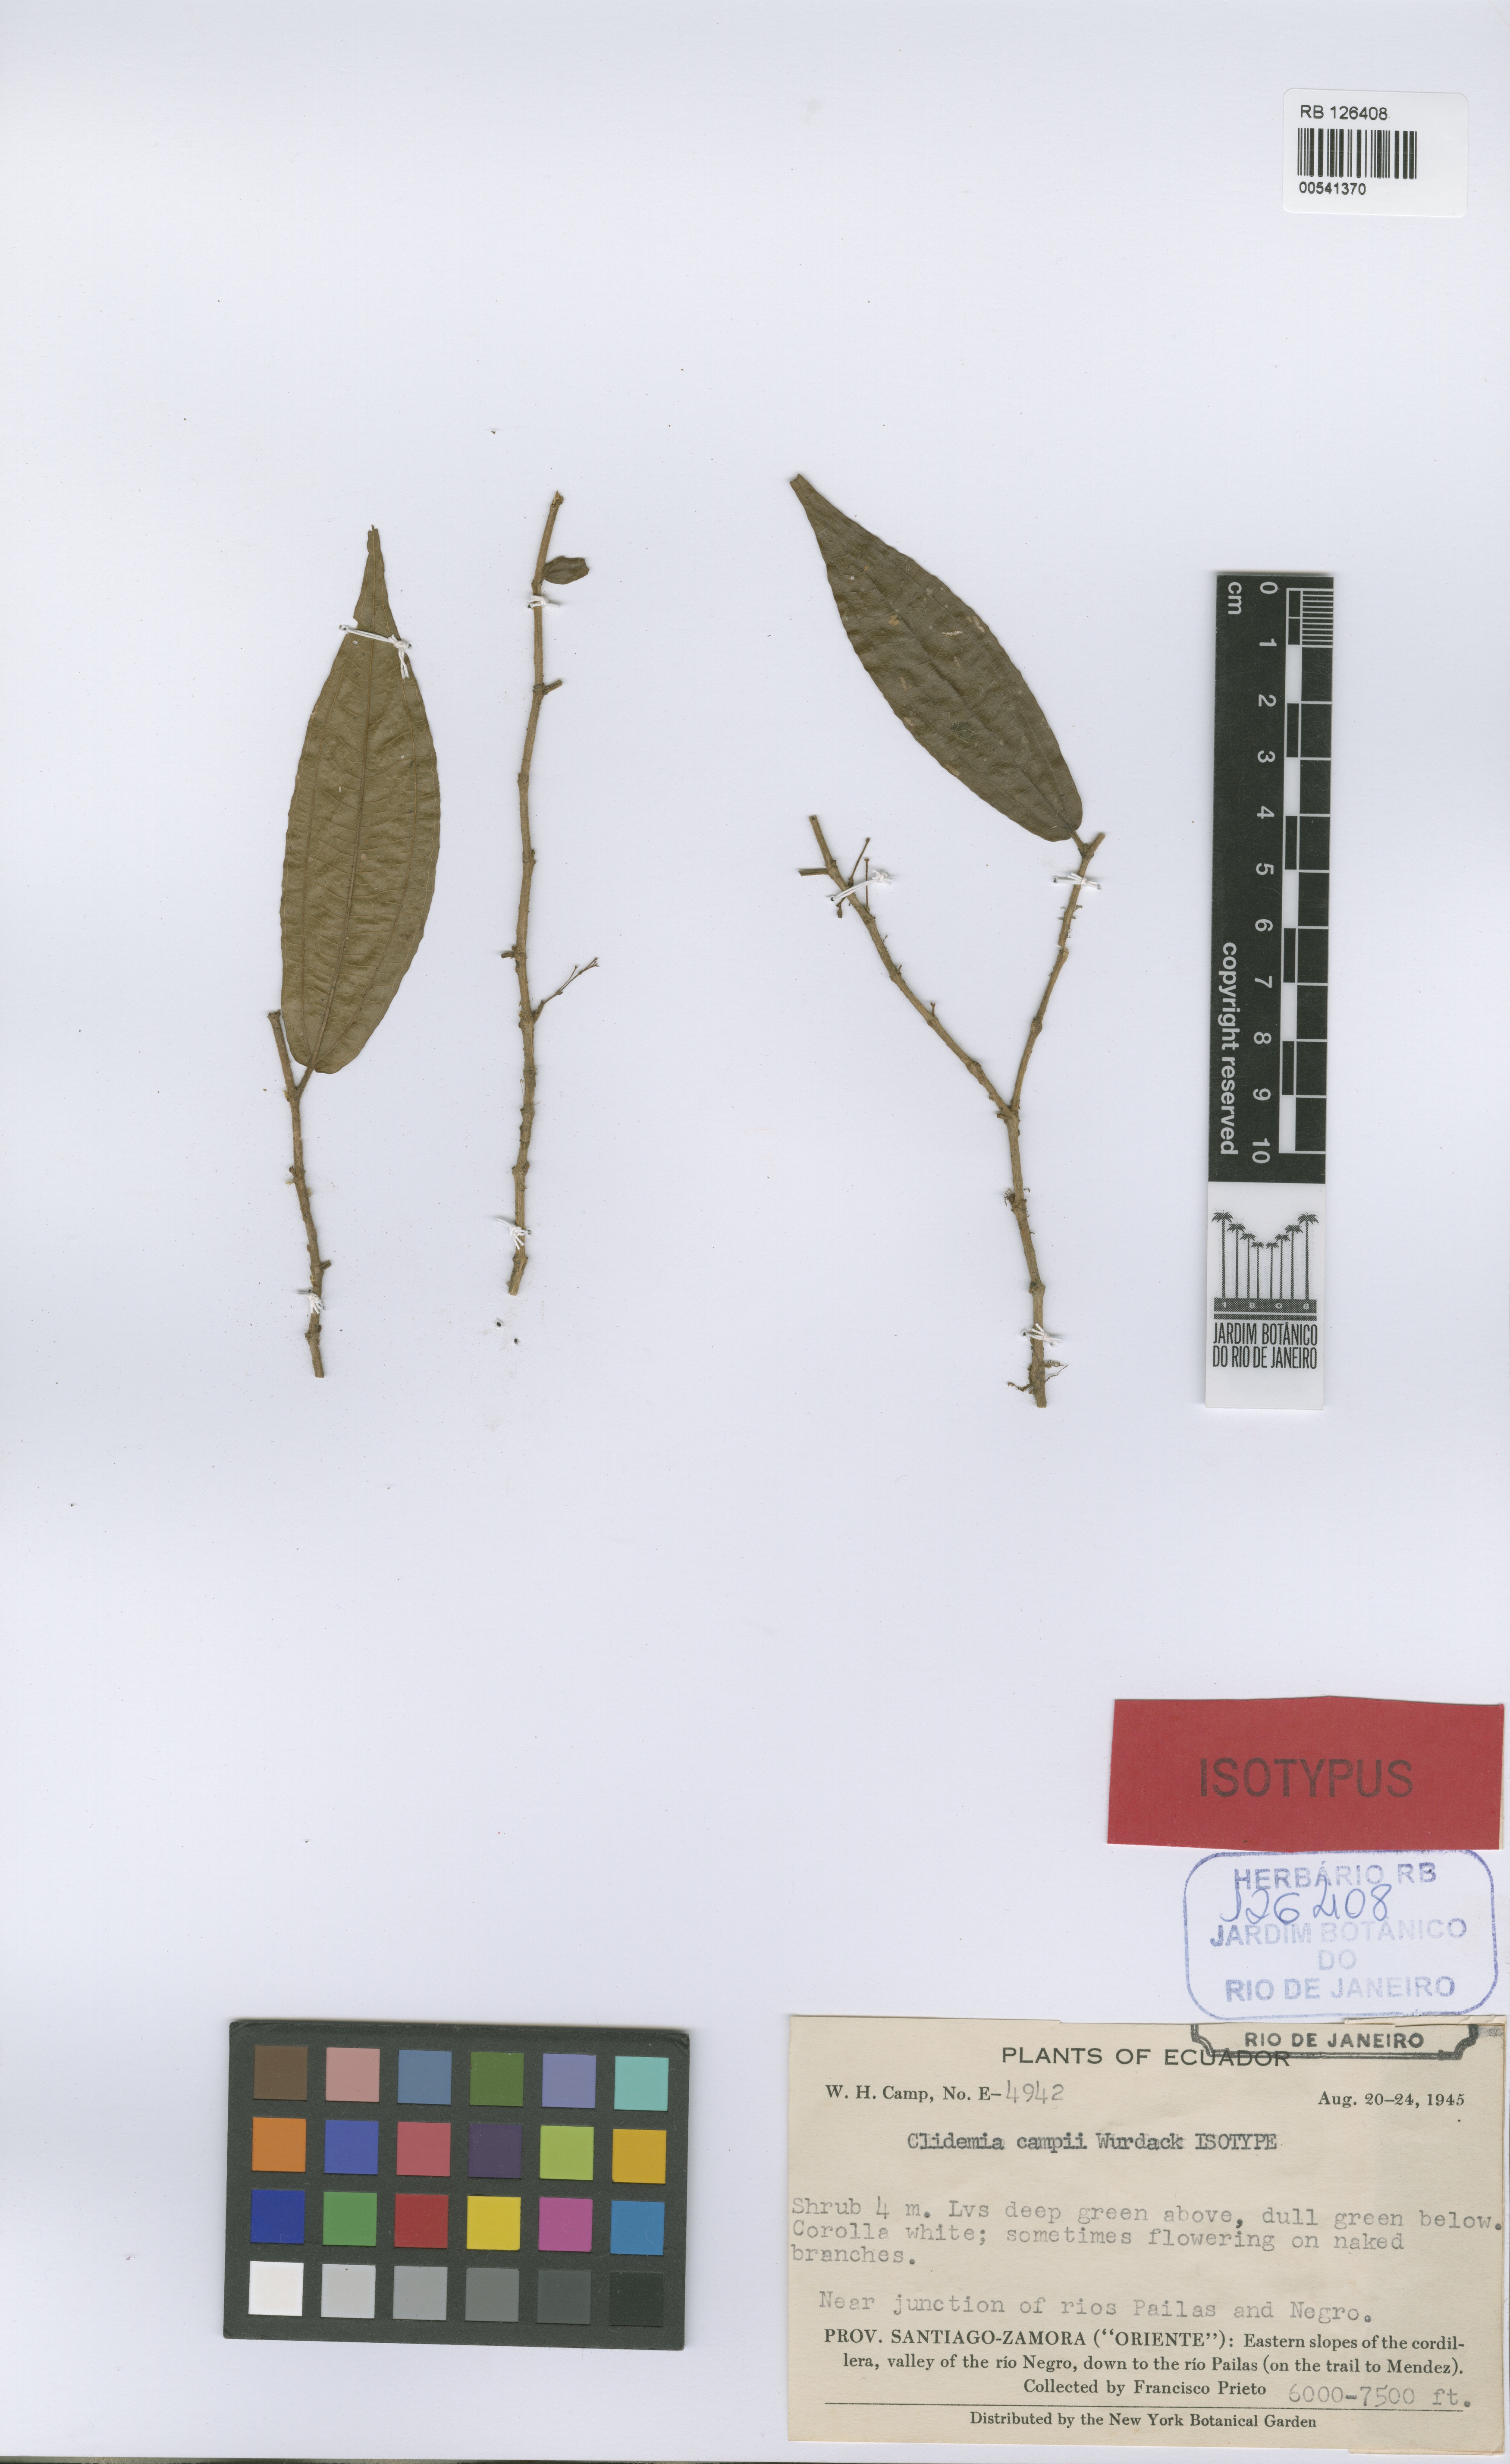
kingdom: Plantae
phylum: Tracheophyta
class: Magnoliopsida
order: Myrtales
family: Melastomataceae
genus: Miconia
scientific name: Miconia waltercampii
